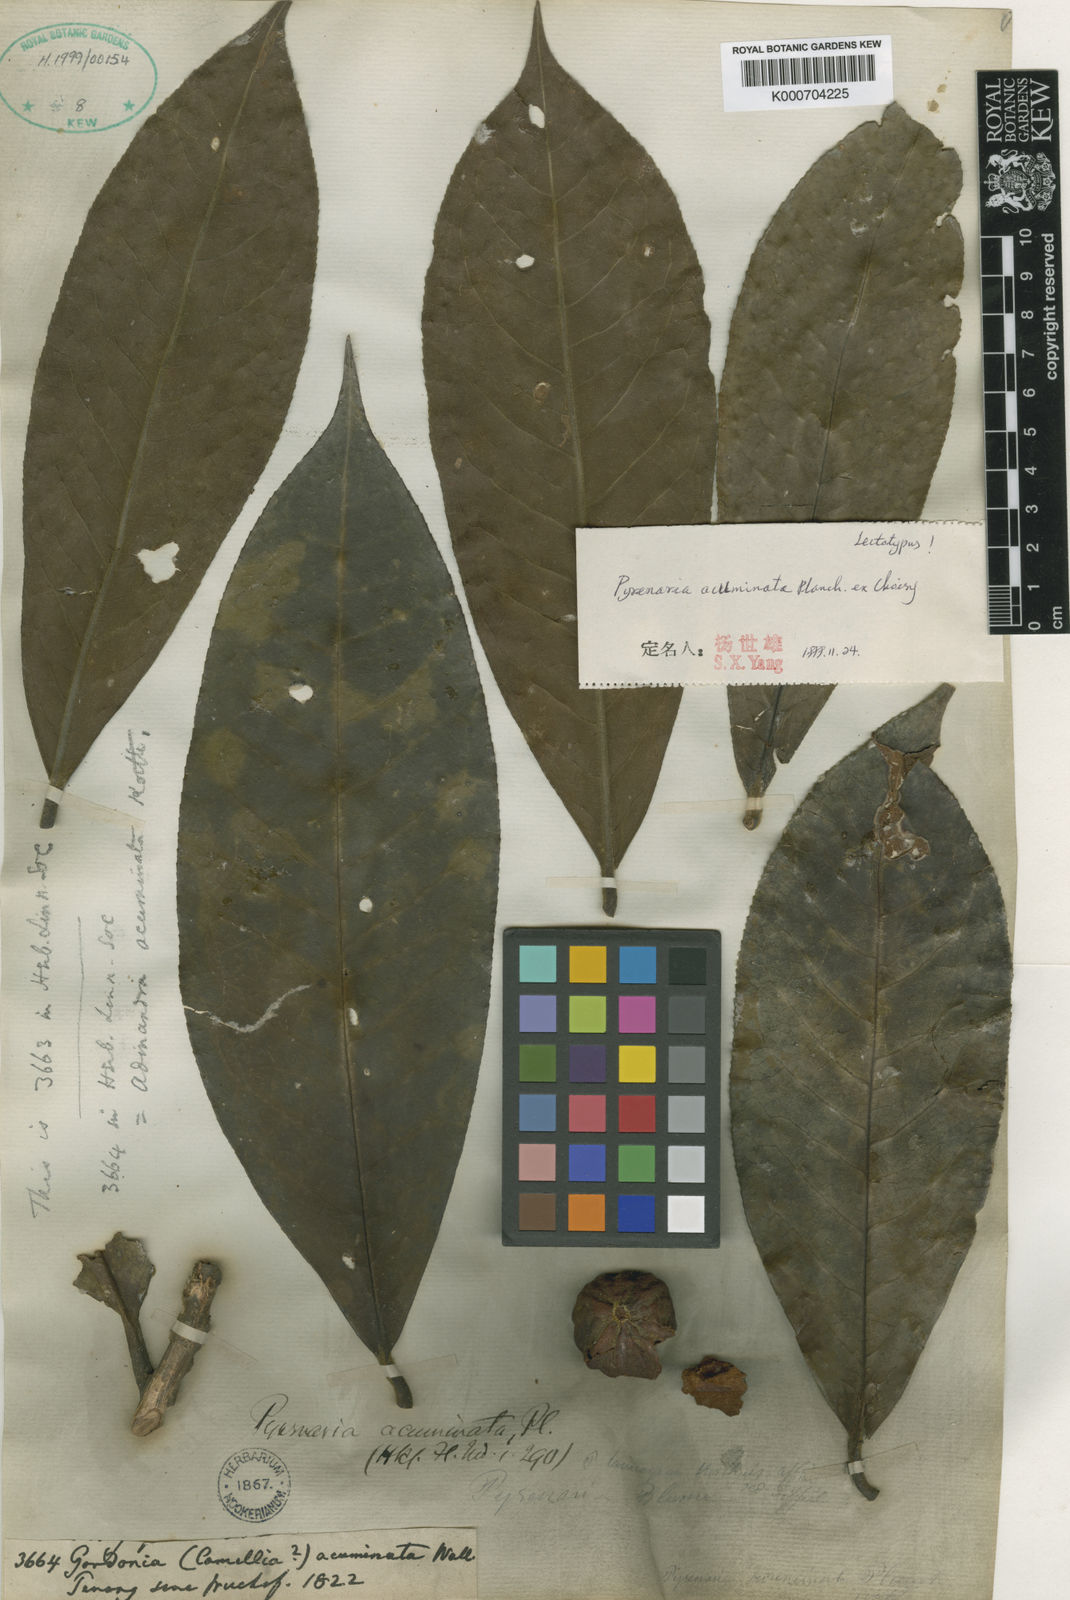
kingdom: Plantae
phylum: Tracheophyta
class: Magnoliopsida
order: Ericales
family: Theaceae
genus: Pyrenaria
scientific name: Pyrenaria acuminata
